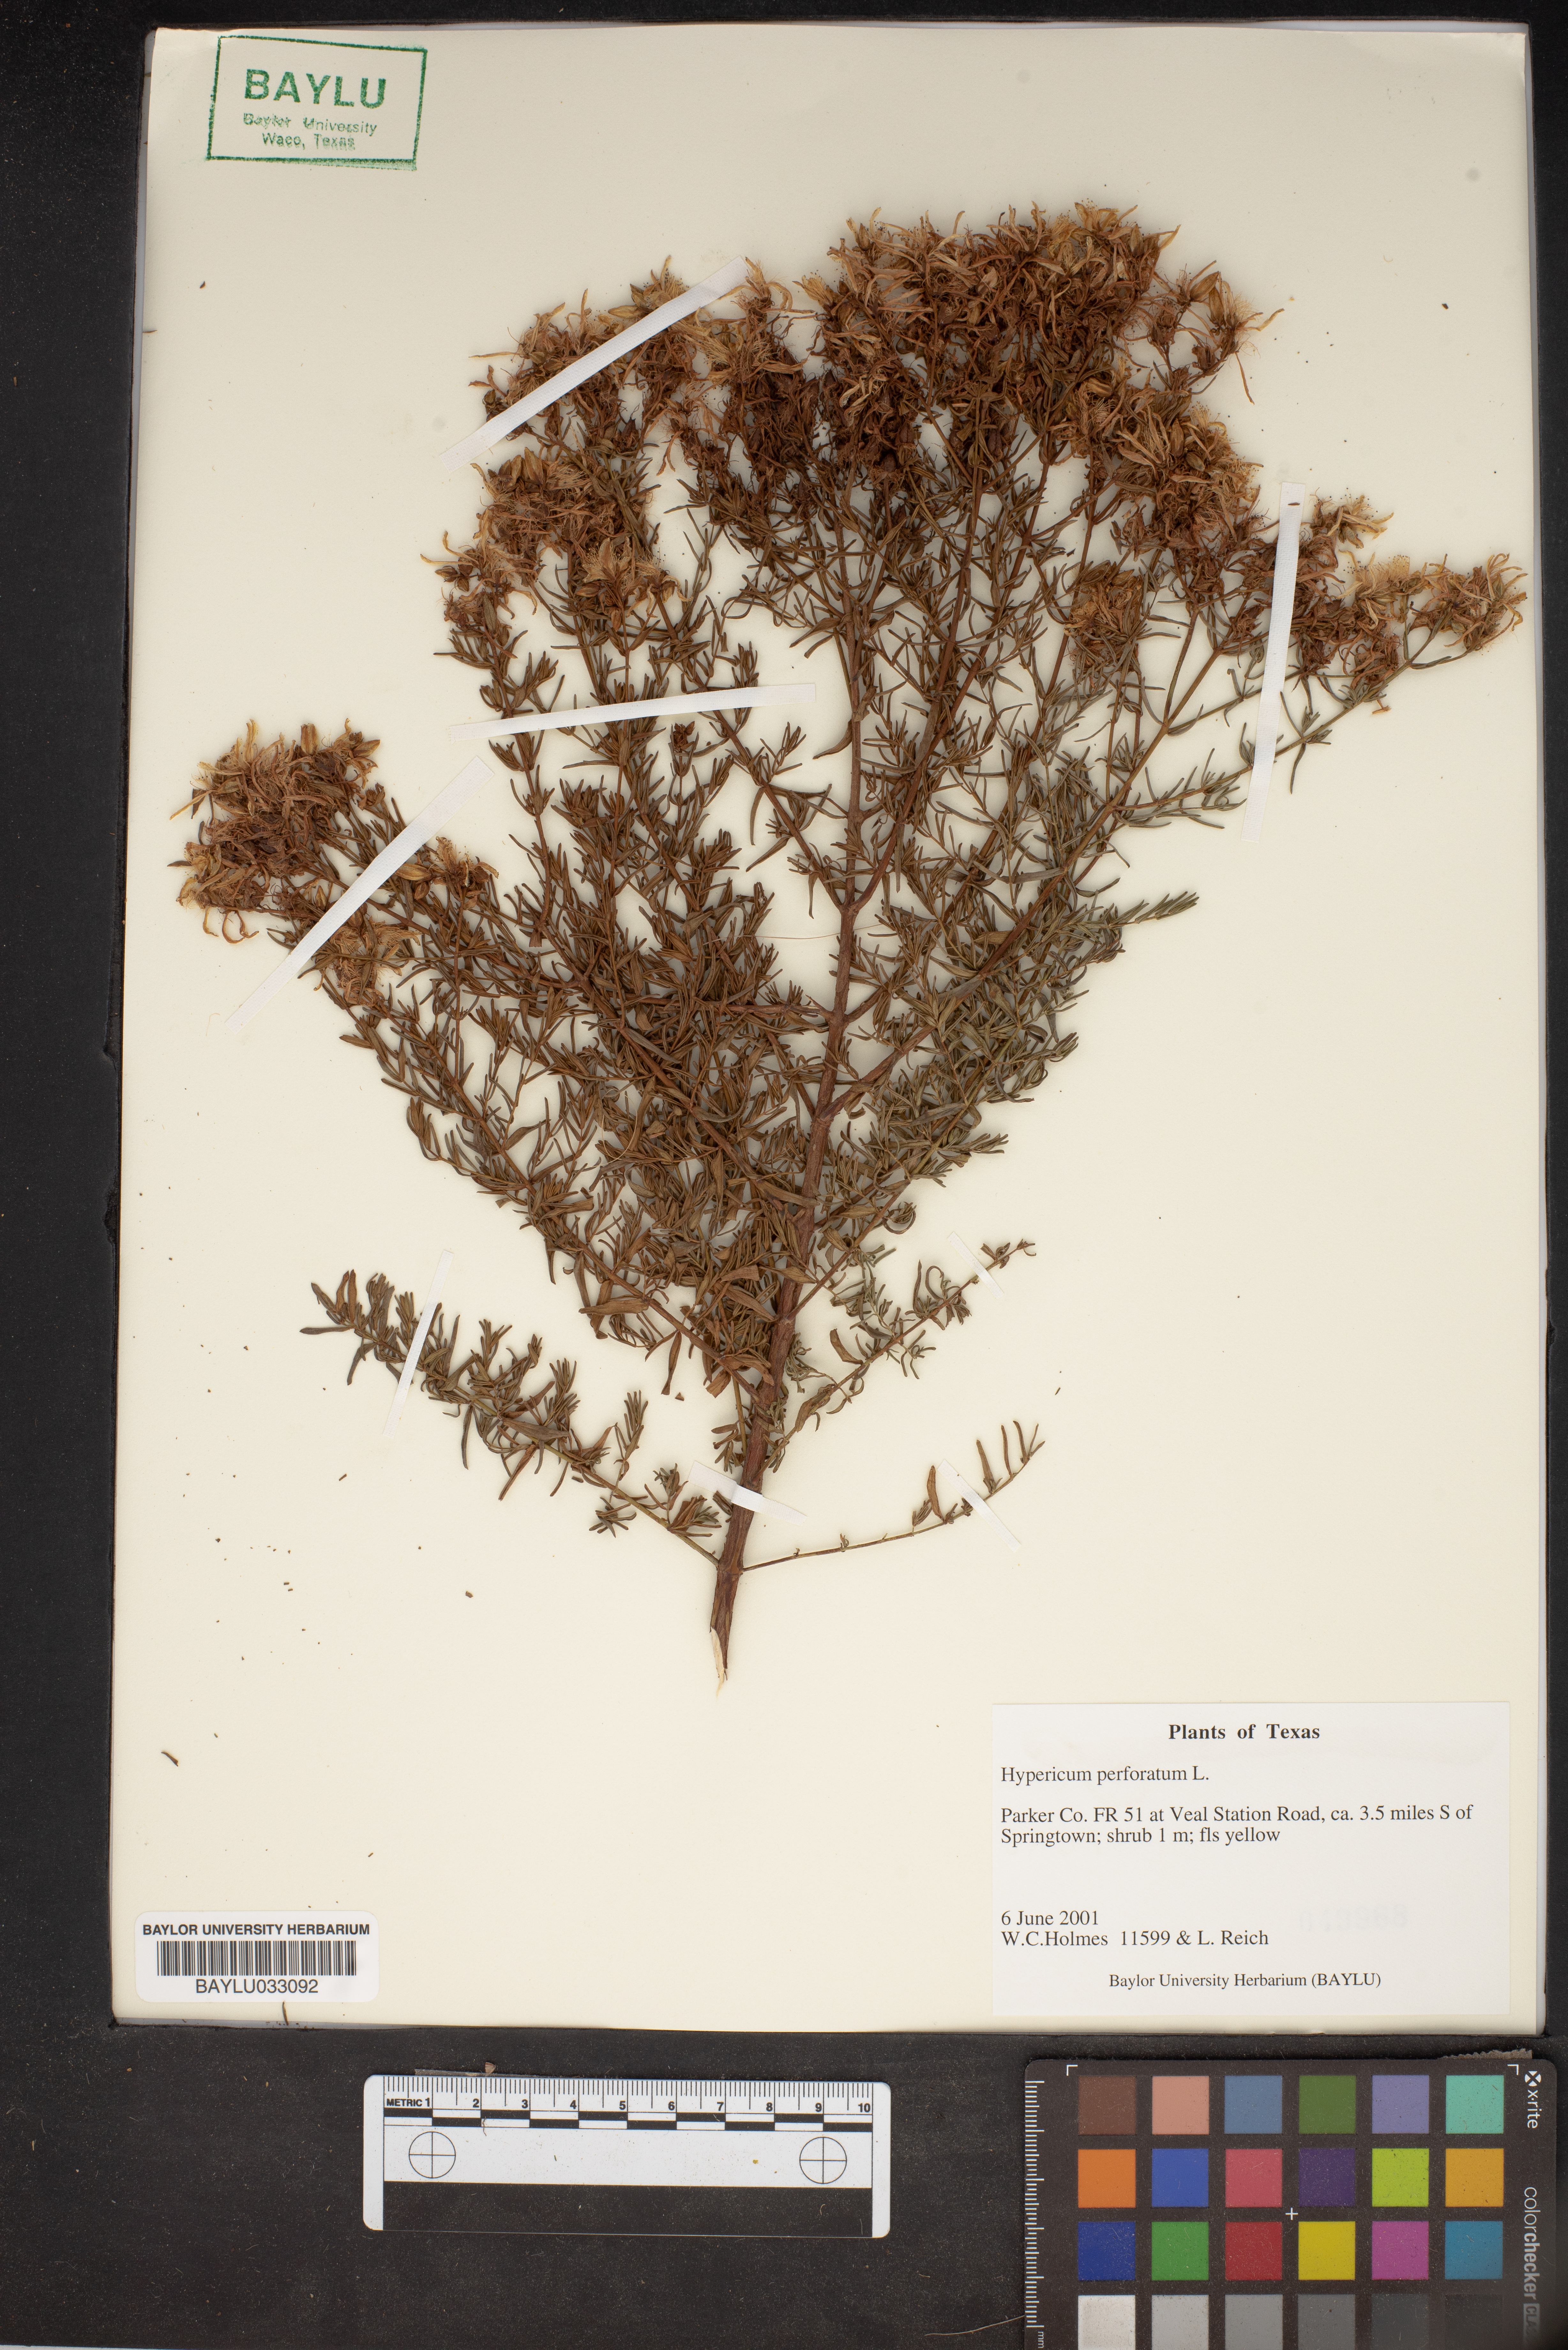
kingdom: Plantae
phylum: Tracheophyta
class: Magnoliopsida
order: Malpighiales
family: Hypericaceae
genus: Hypericum
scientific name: Hypericum perforatum
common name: Common st. johnswort
